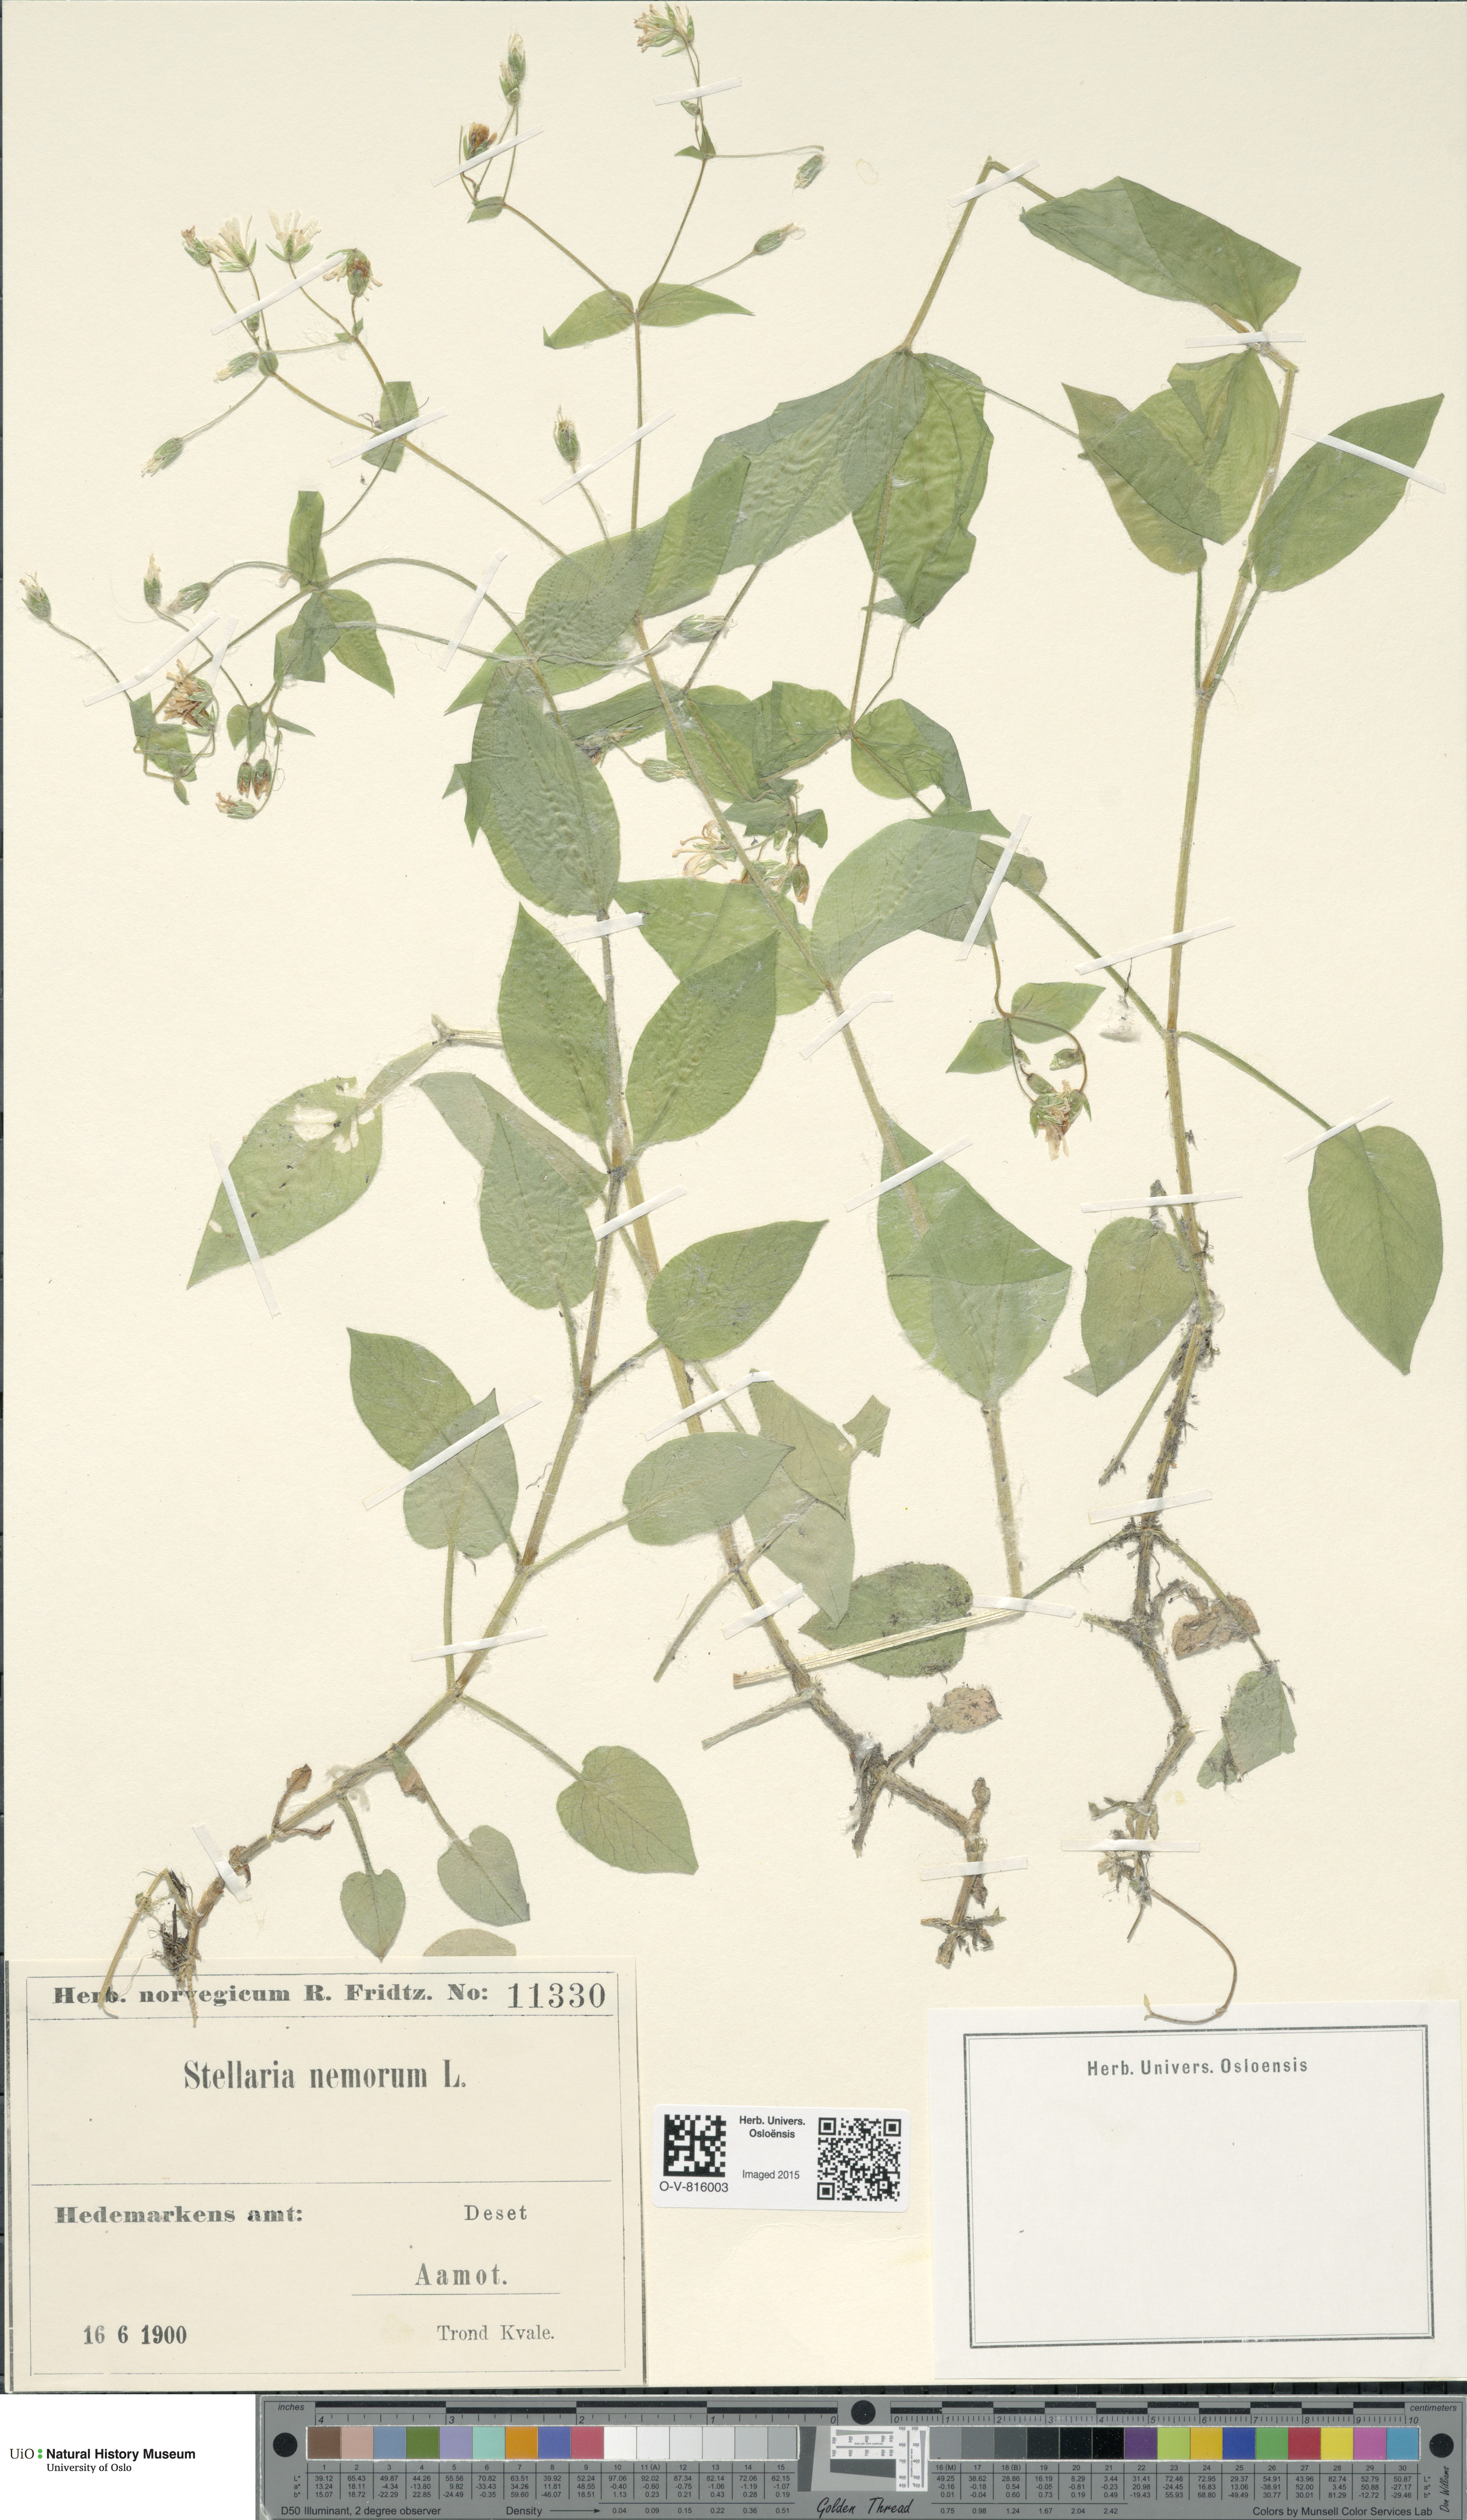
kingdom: Plantae
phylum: Tracheophyta
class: Magnoliopsida
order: Caryophyllales
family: Caryophyllaceae
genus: Stellaria
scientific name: Stellaria nemorum
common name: Wood stitchwort
